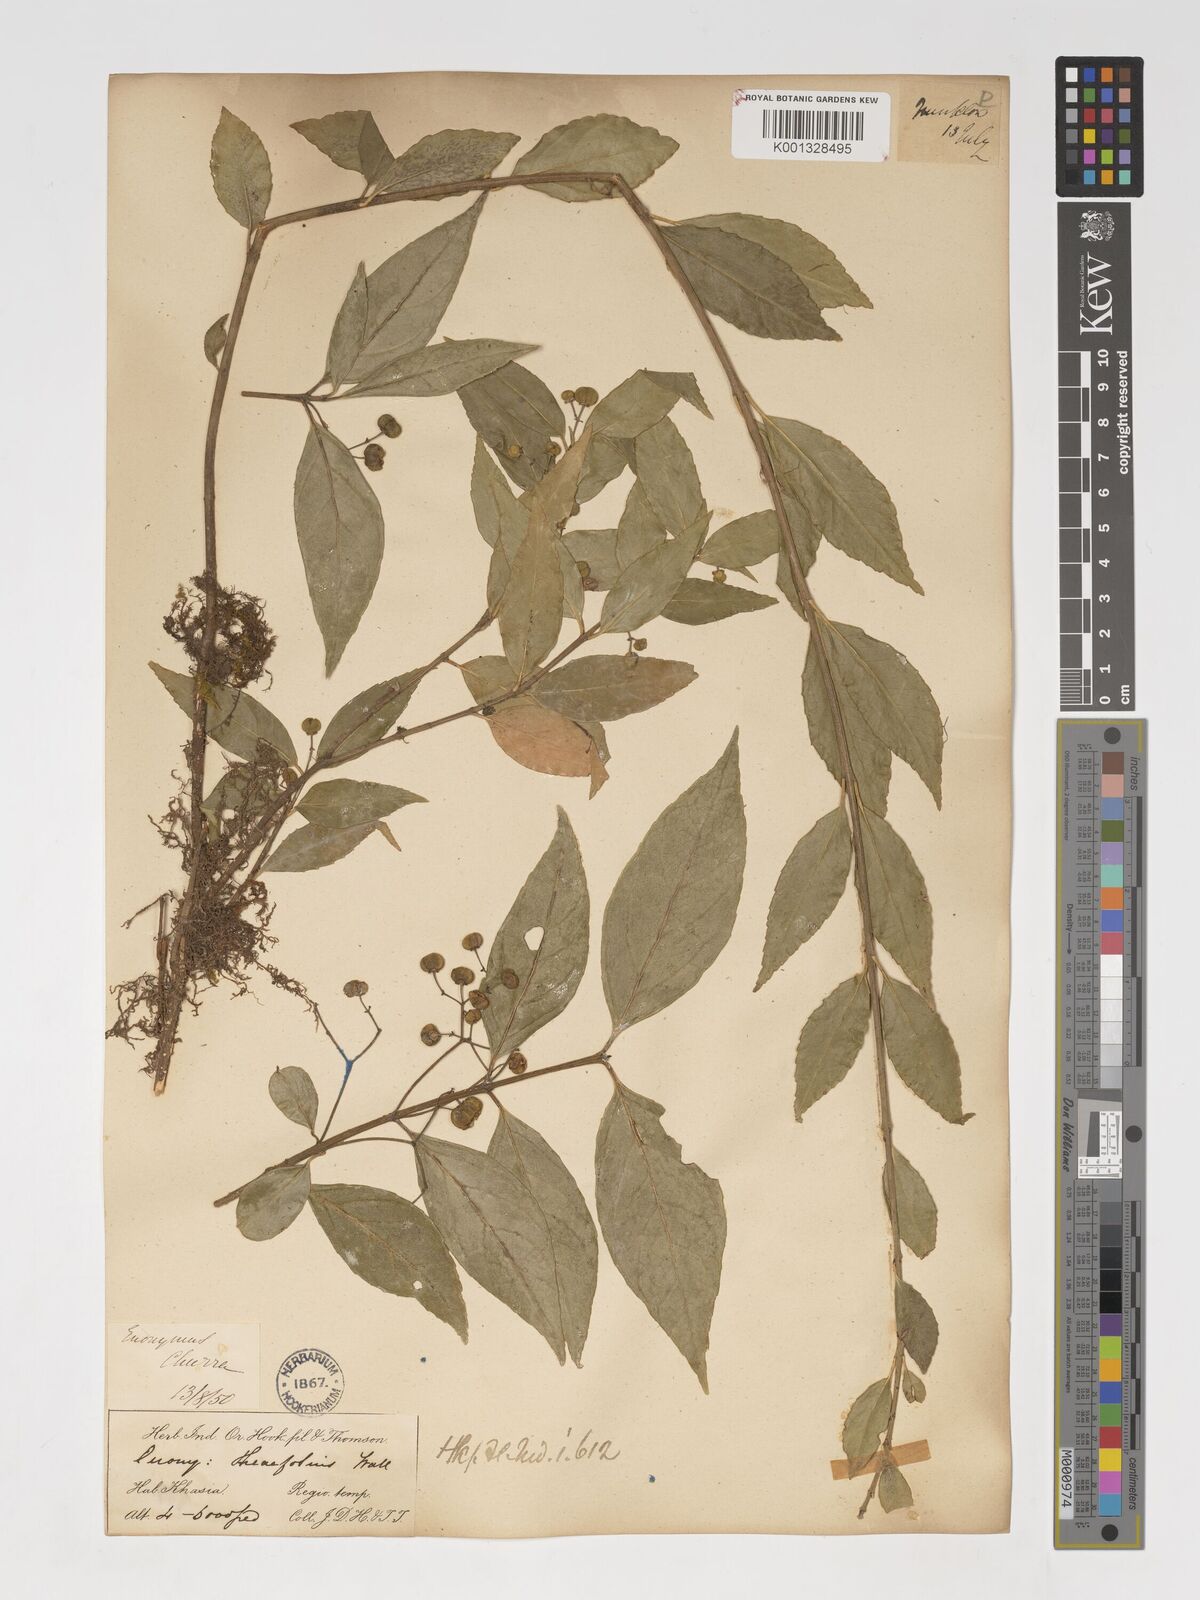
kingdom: Plantae
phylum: Tracheophyta
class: Magnoliopsida
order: Celastrales
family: Celastraceae
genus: Euonymus
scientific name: Euonymus theifolius
